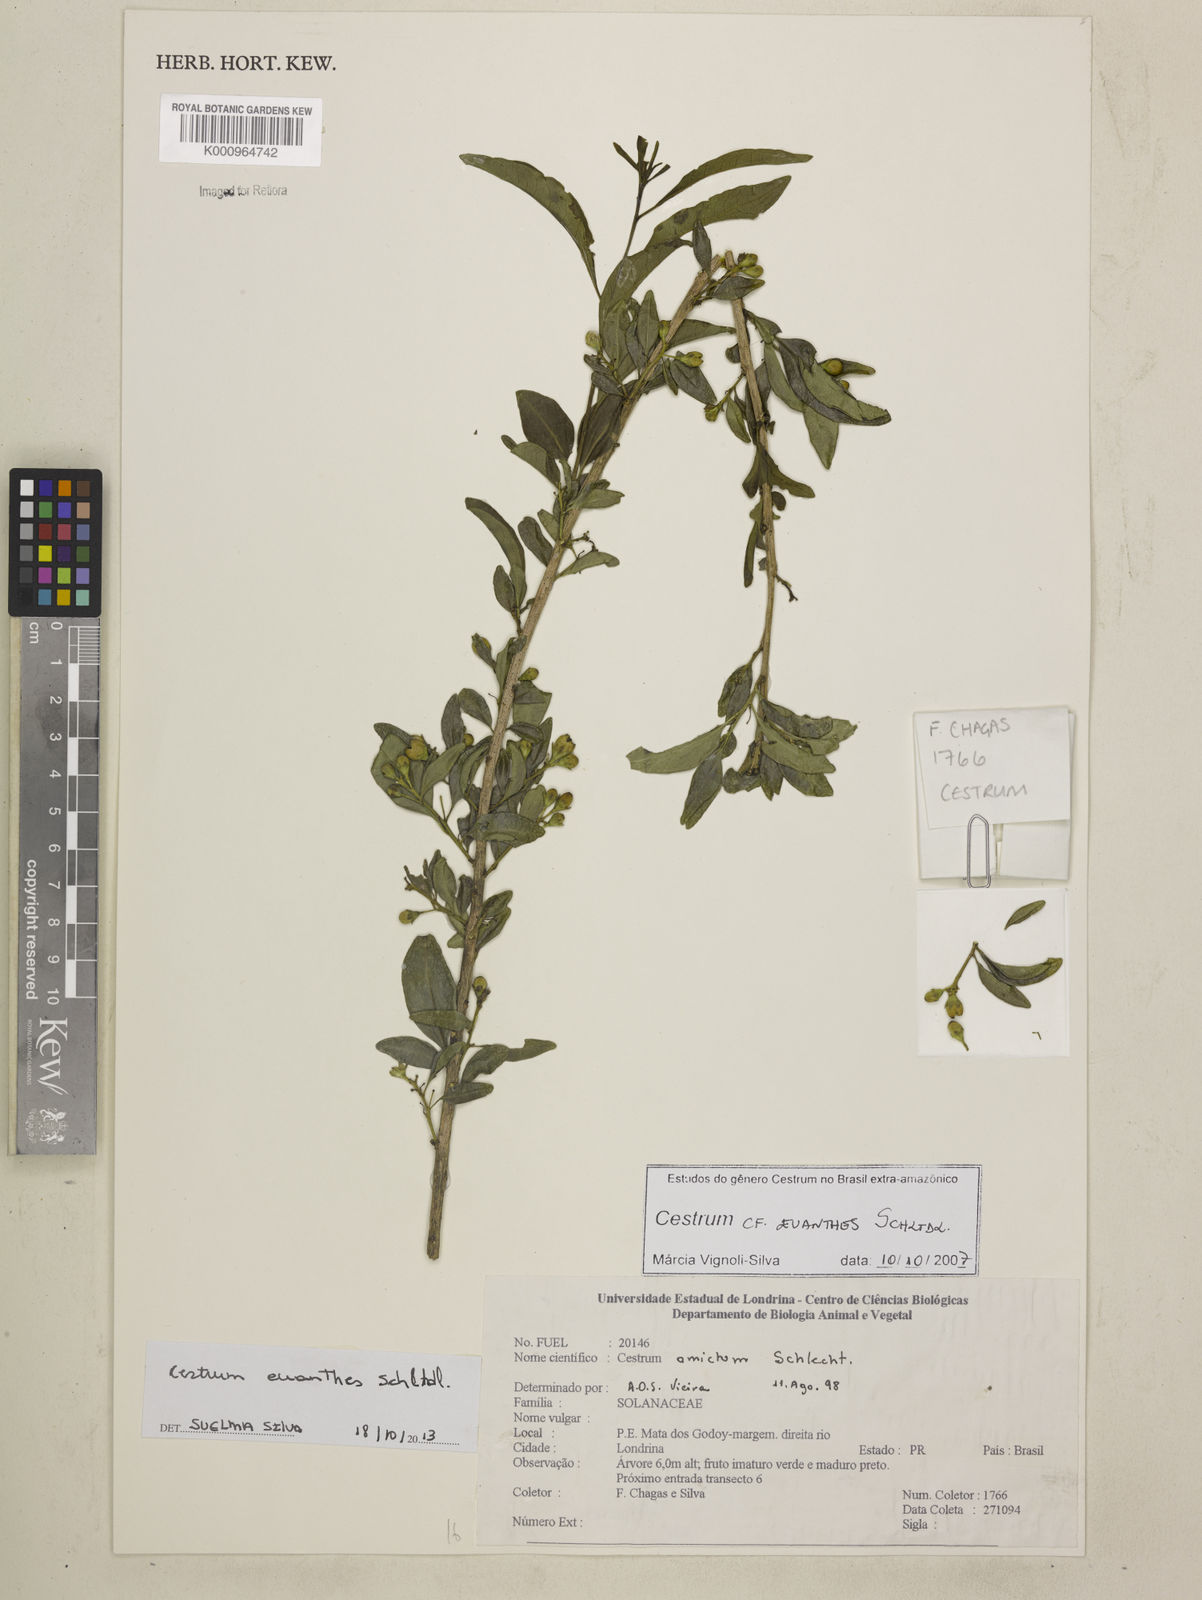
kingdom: Plantae
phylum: Tracheophyta
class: Magnoliopsida
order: Solanales
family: Solanaceae
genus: Cestrum
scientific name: Cestrum euanthes
